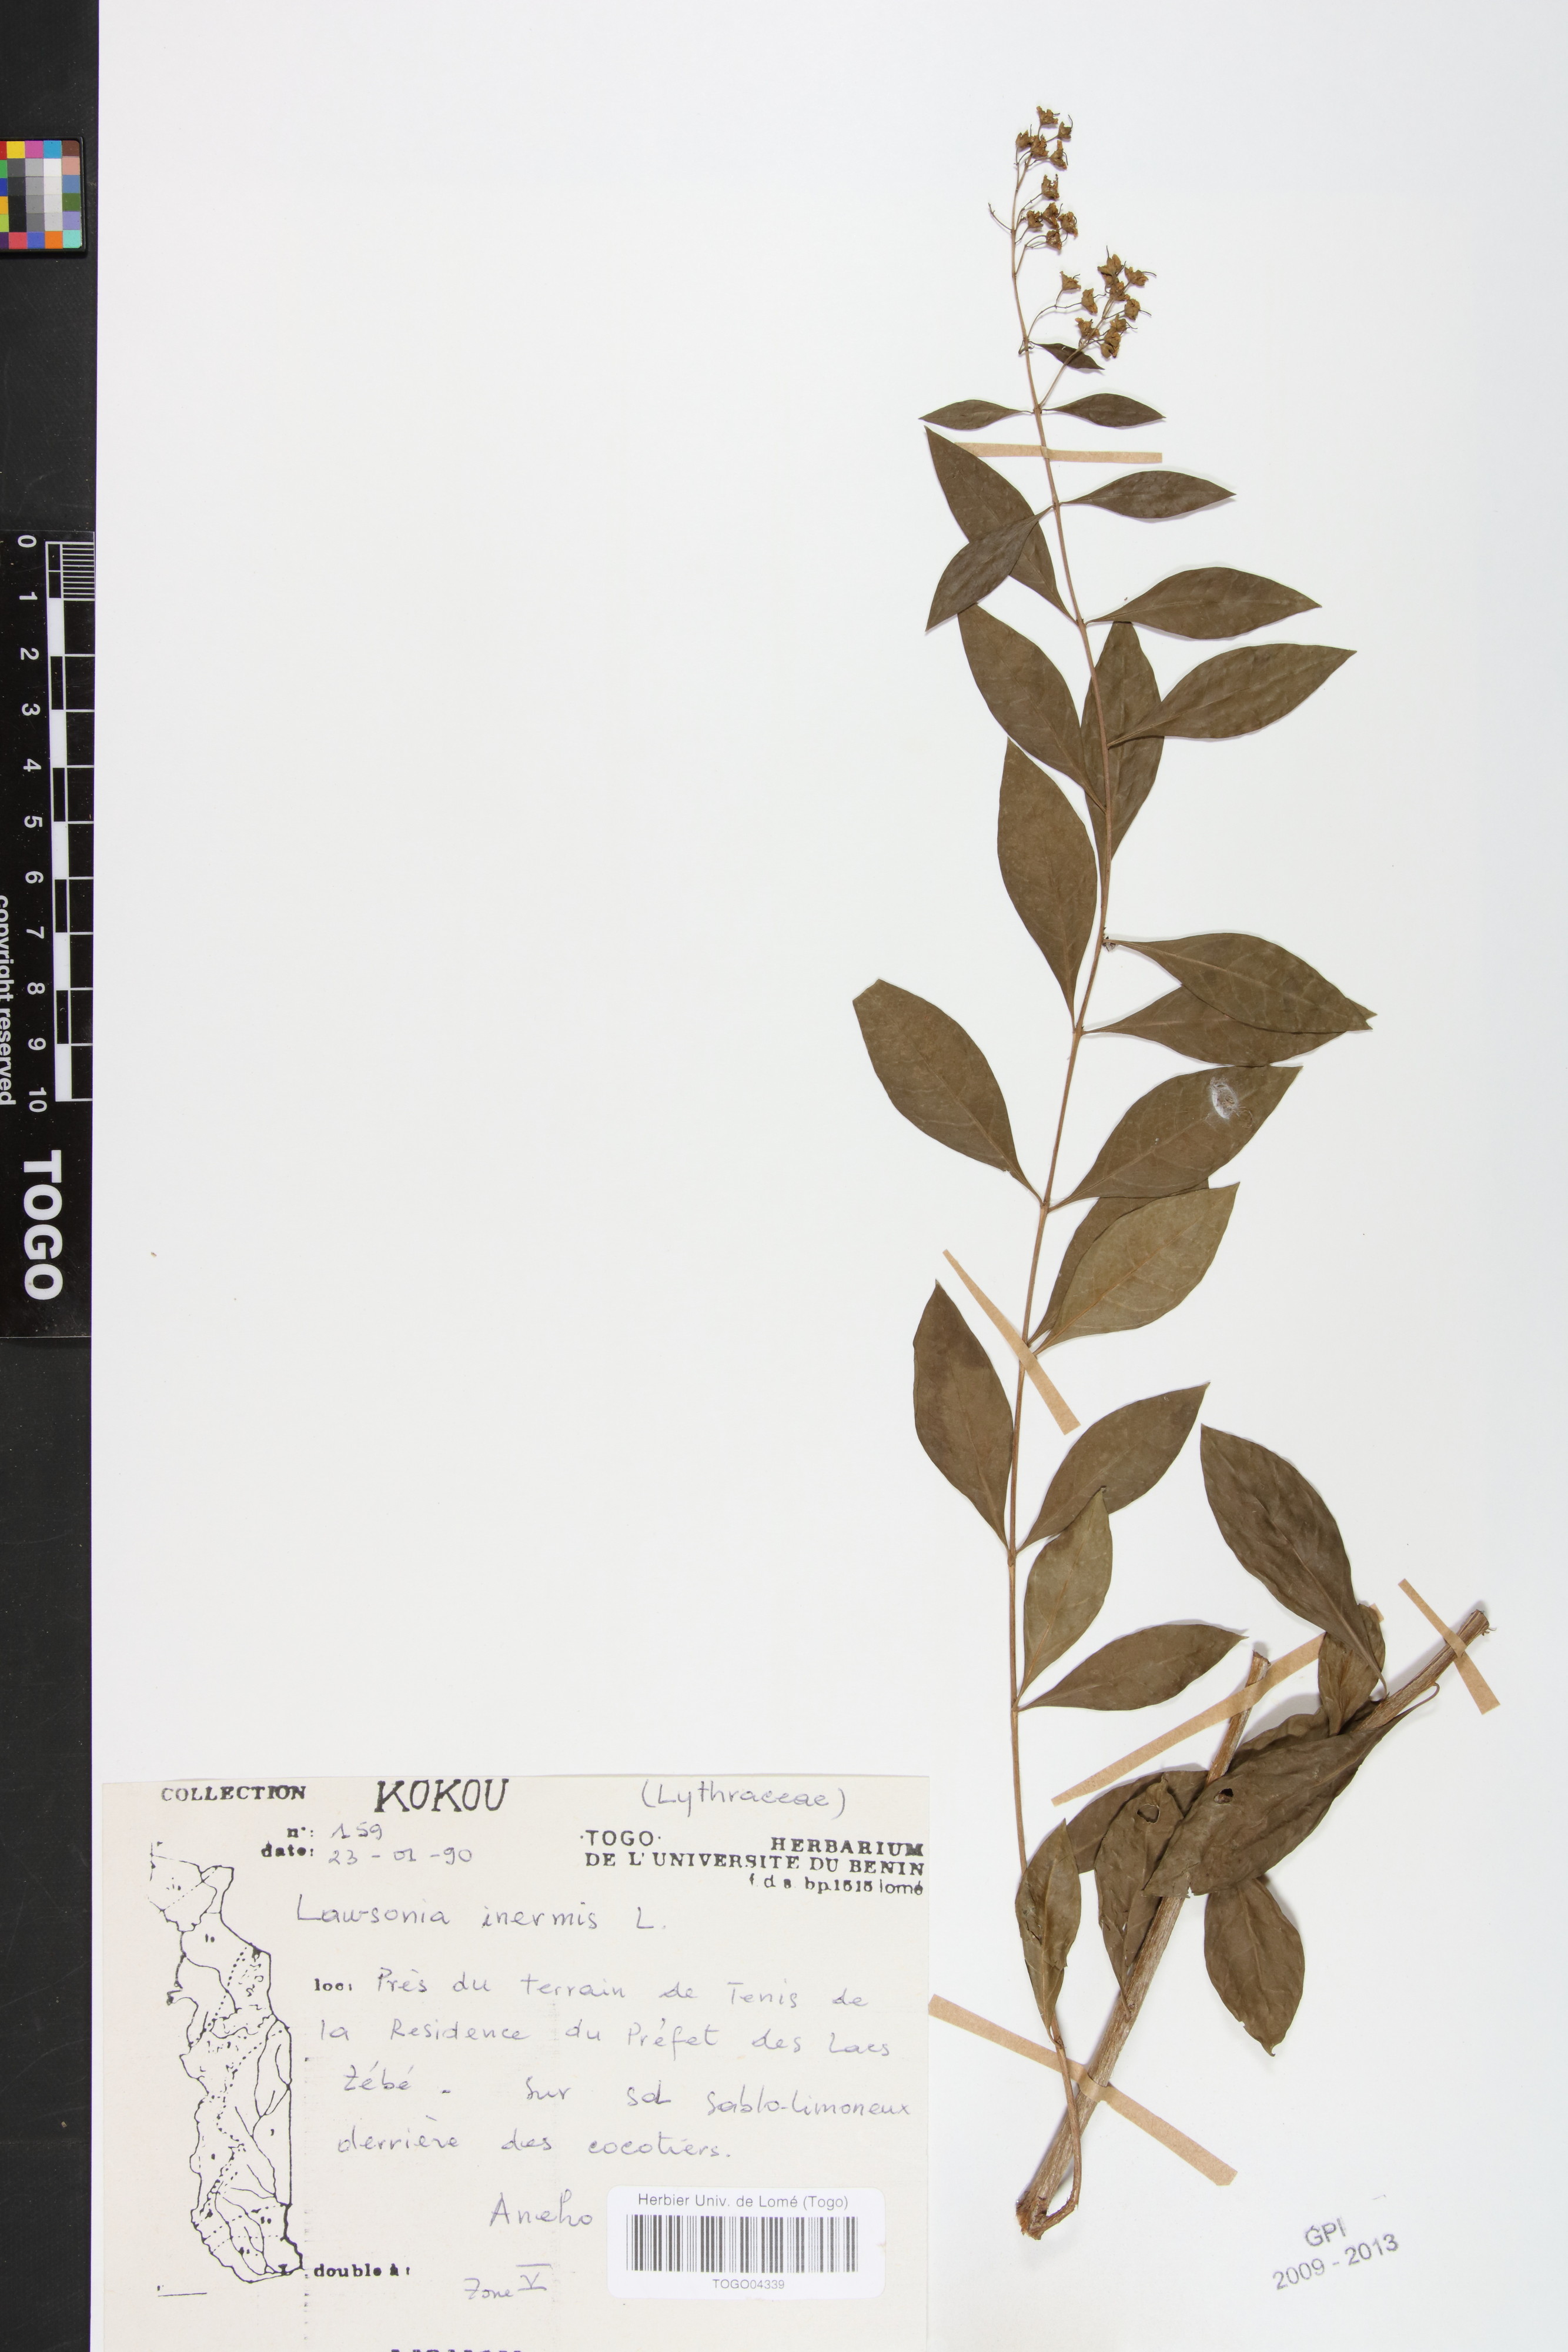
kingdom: Plantae
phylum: Tracheophyta
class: Magnoliopsida
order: Myrtales
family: Lythraceae
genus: Lawsonia
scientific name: Lawsonia inermis
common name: Henna
